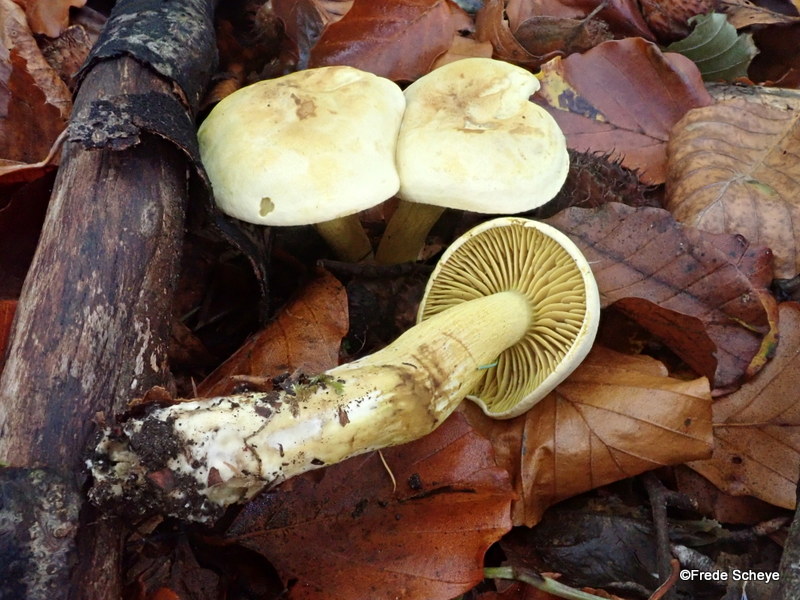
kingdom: Fungi
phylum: Basidiomycota
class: Agaricomycetes
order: Agaricales
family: Tricholomataceae
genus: Tricholoma
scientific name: Tricholoma sulphureum
